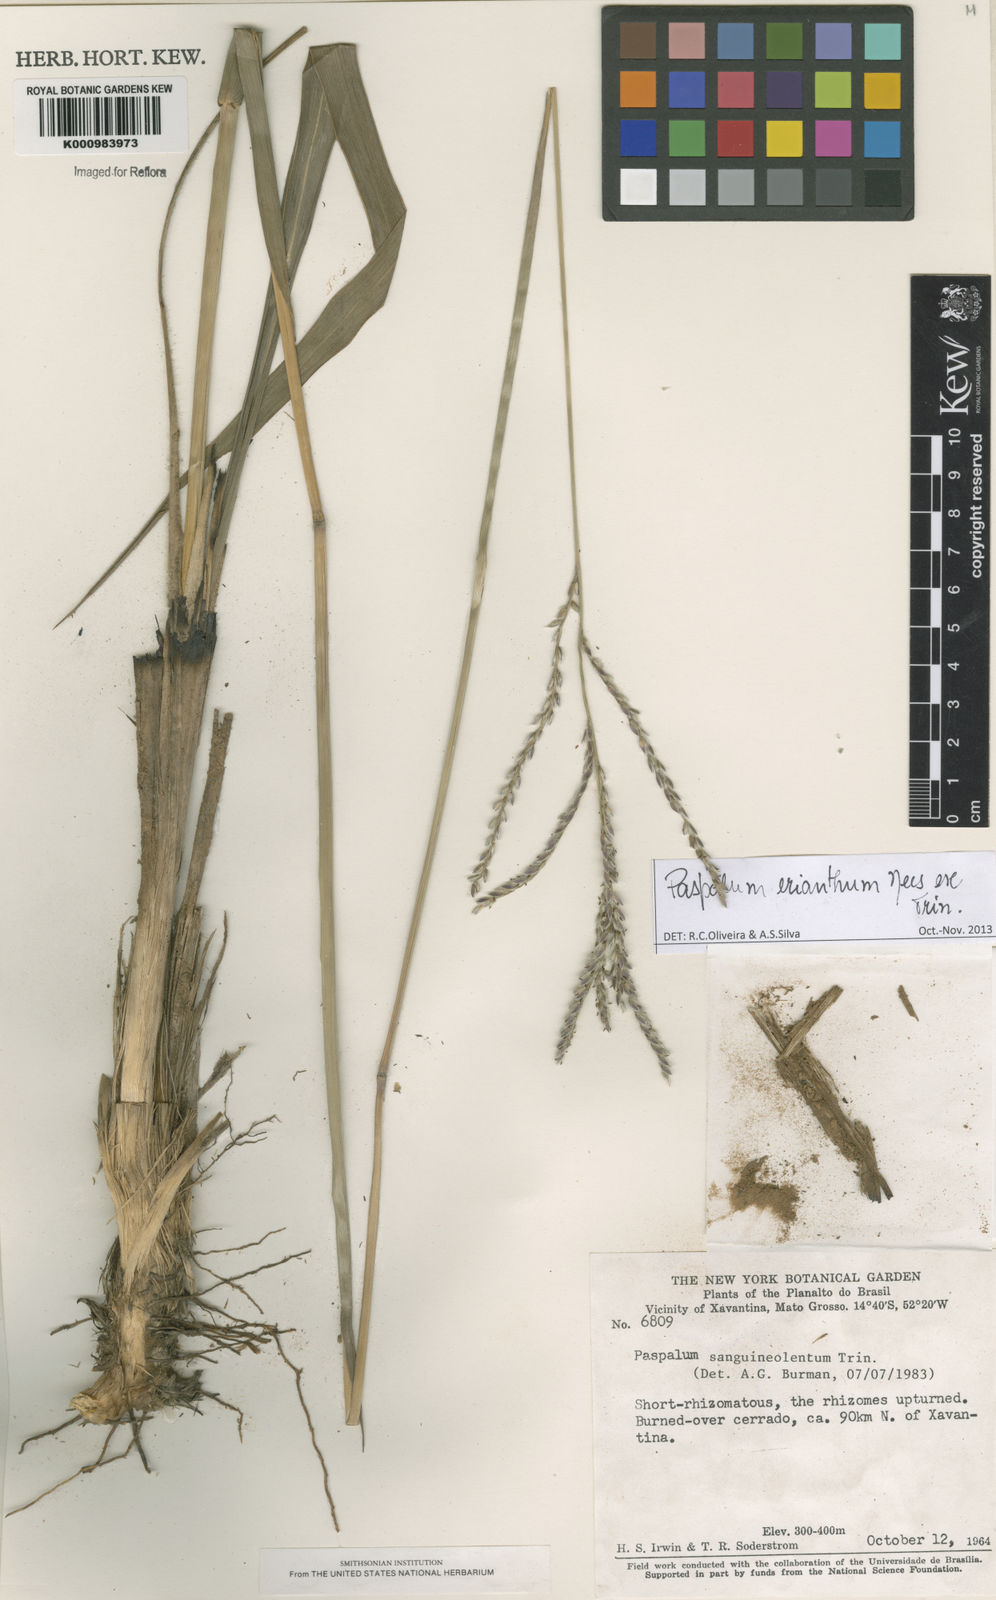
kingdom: Plantae
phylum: Tracheophyta
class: Liliopsida
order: Poales
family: Poaceae
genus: Paspalum
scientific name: Paspalum erianthum
